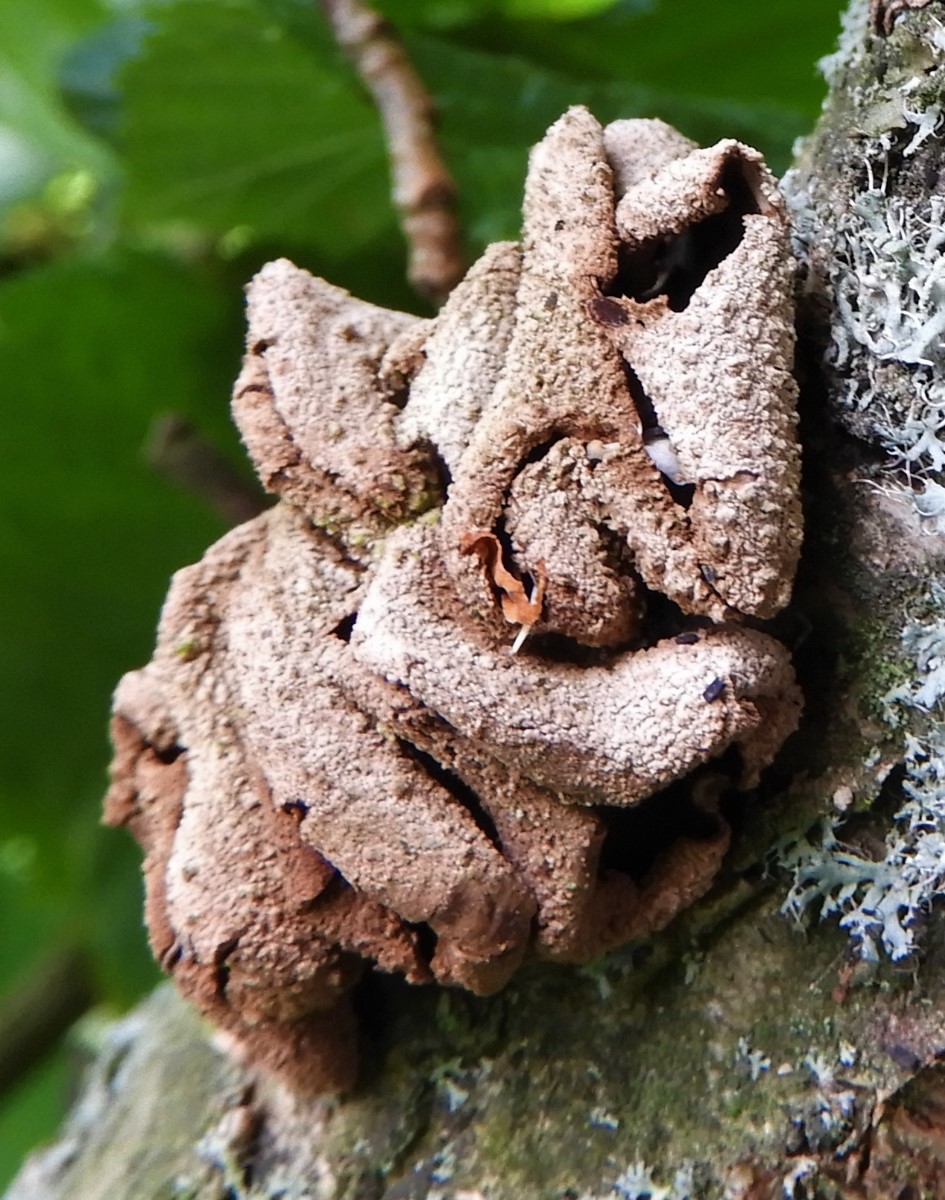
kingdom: Fungi
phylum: Ascomycota
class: Leotiomycetes
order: Helotiales
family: Cenangiaceae
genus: Encoelia
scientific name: Encoelia furfuracea
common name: hassel-læderskive
